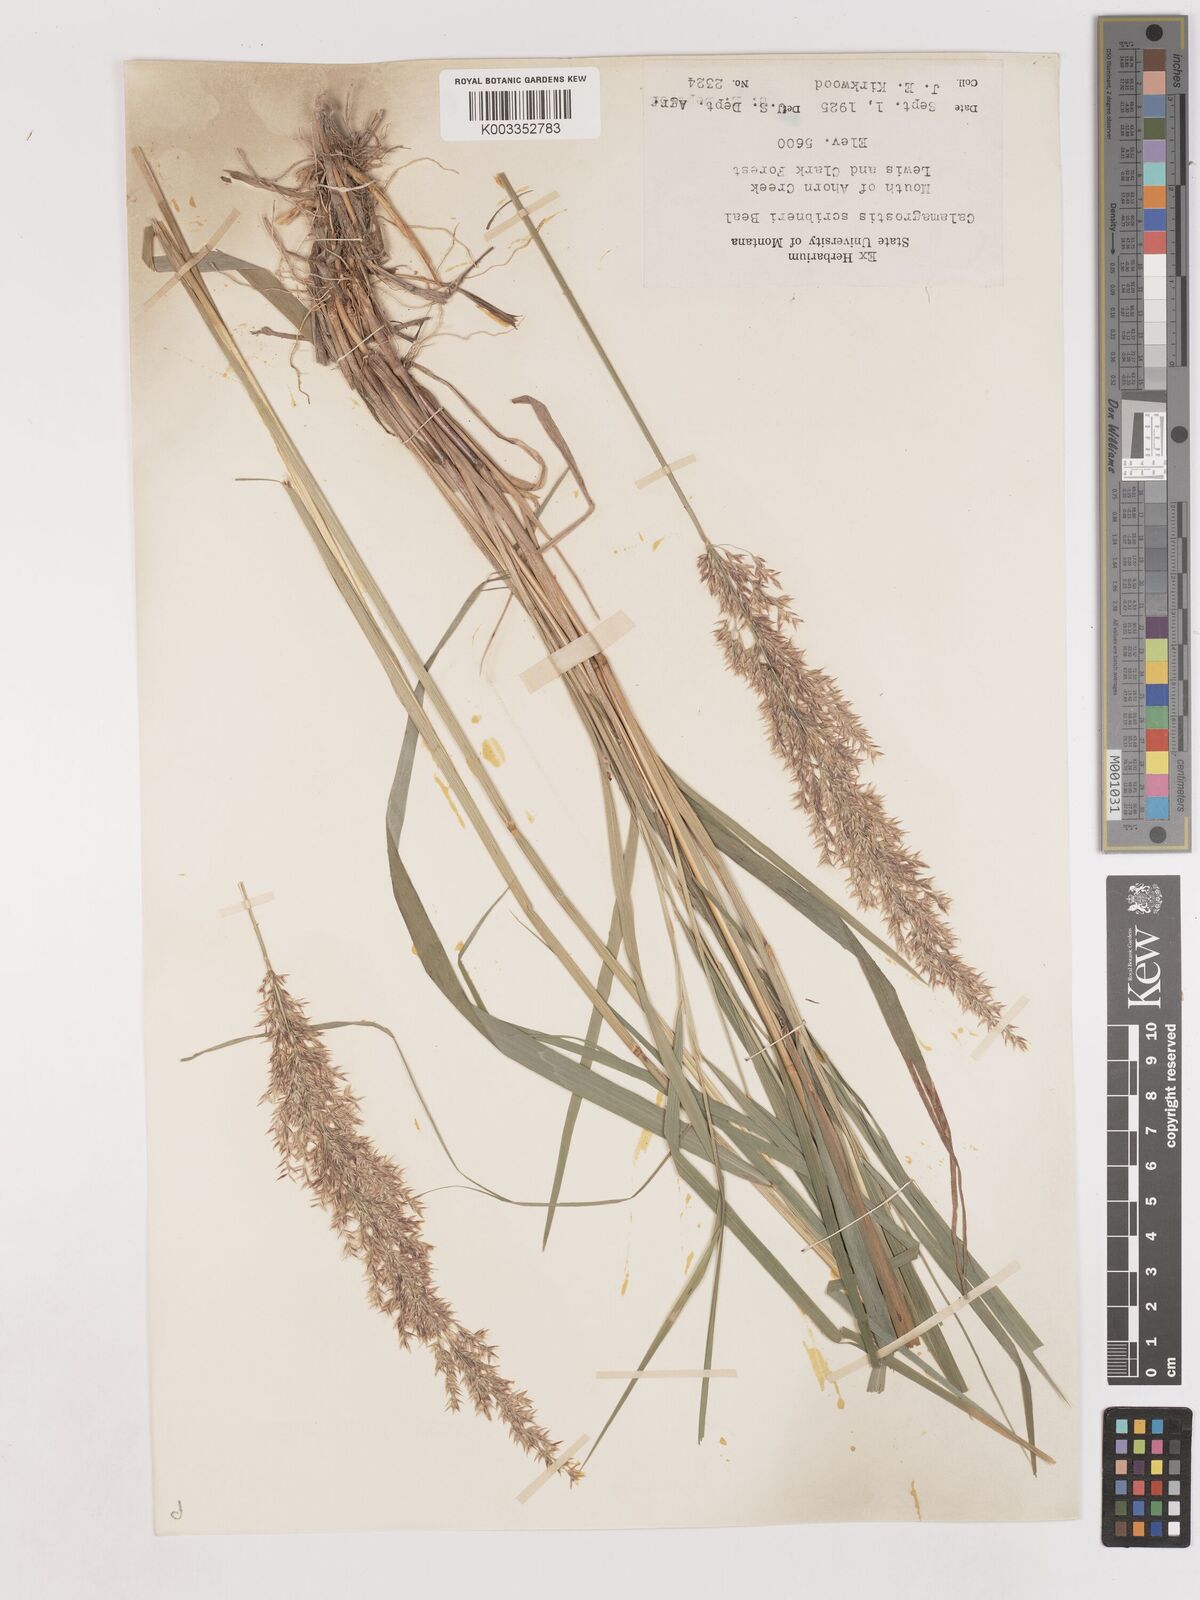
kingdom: Plantae
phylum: Tracheophyta
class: Liliopsida
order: Poales
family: Poaceae
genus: Calamagrostis
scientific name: Calamagrostis canadensis
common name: Canada bluejoint
